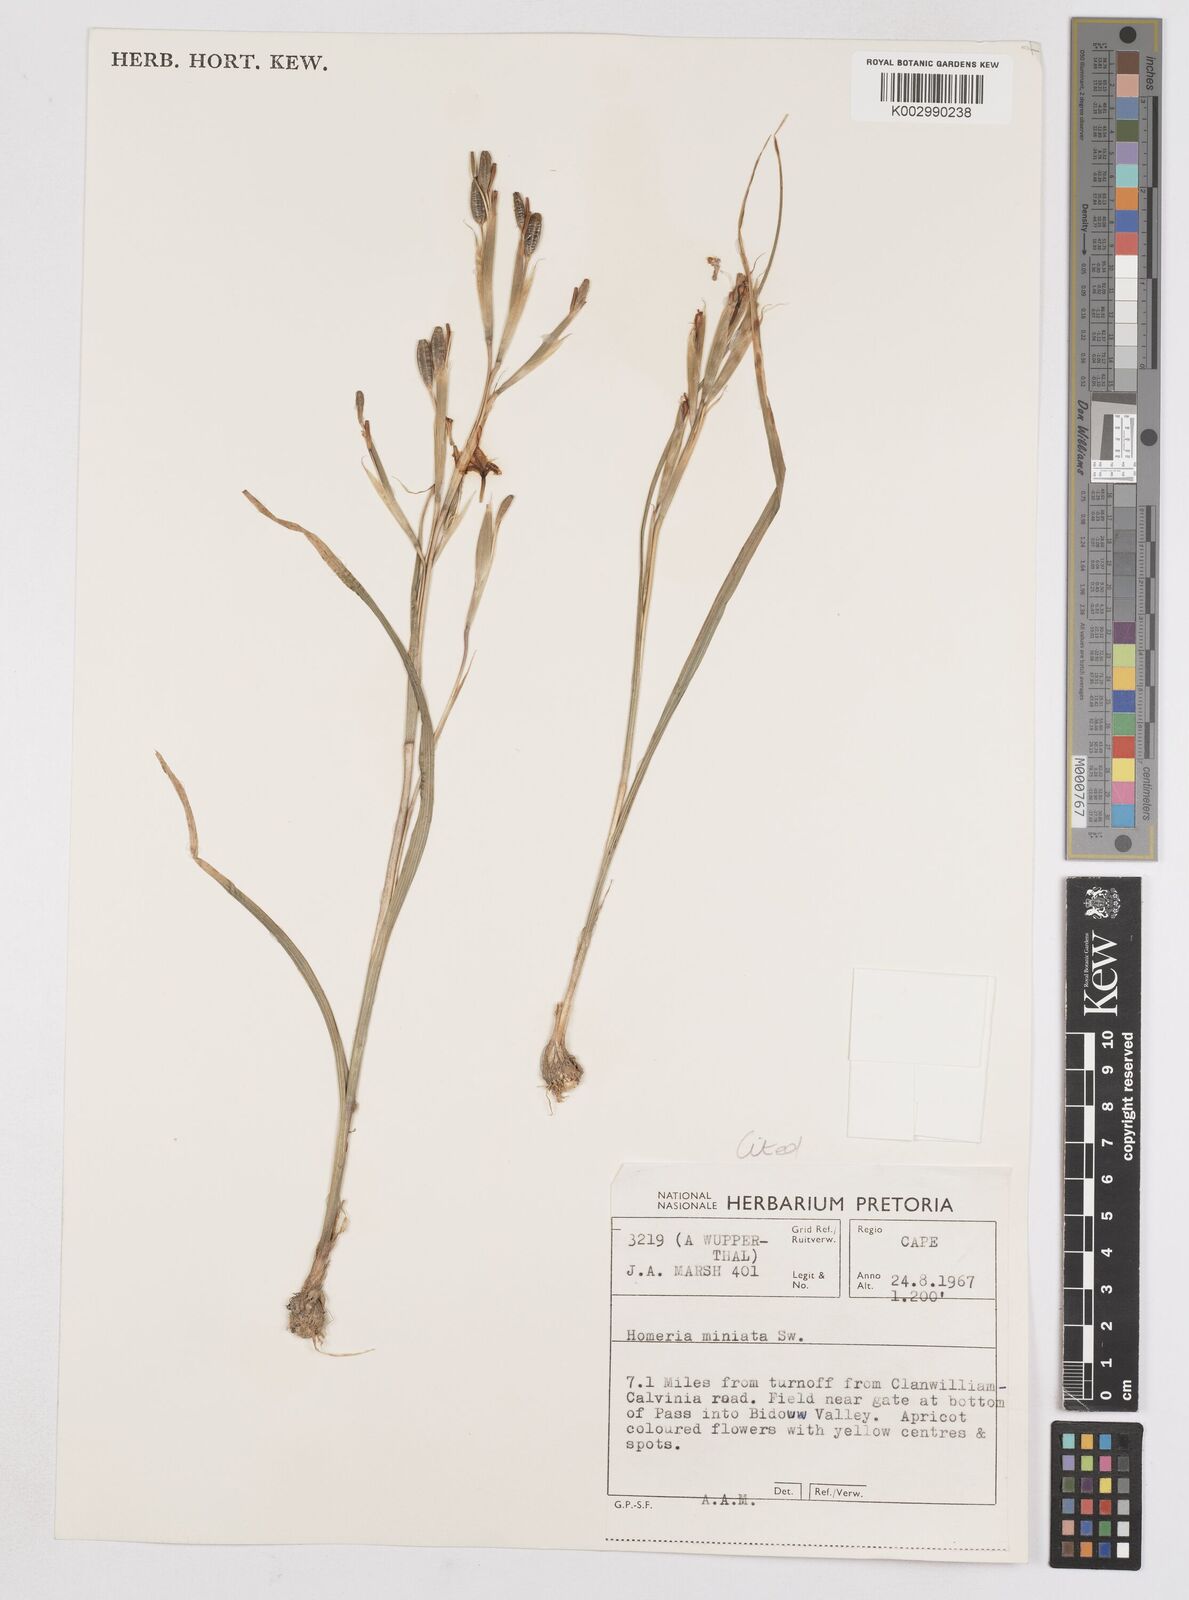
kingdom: Plantae
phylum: Tracheophyta
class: Liliopsida
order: Asparagales
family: Iridaceae
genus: Moraea
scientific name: Moraea miniata
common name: Two-leaf cape-tulip
